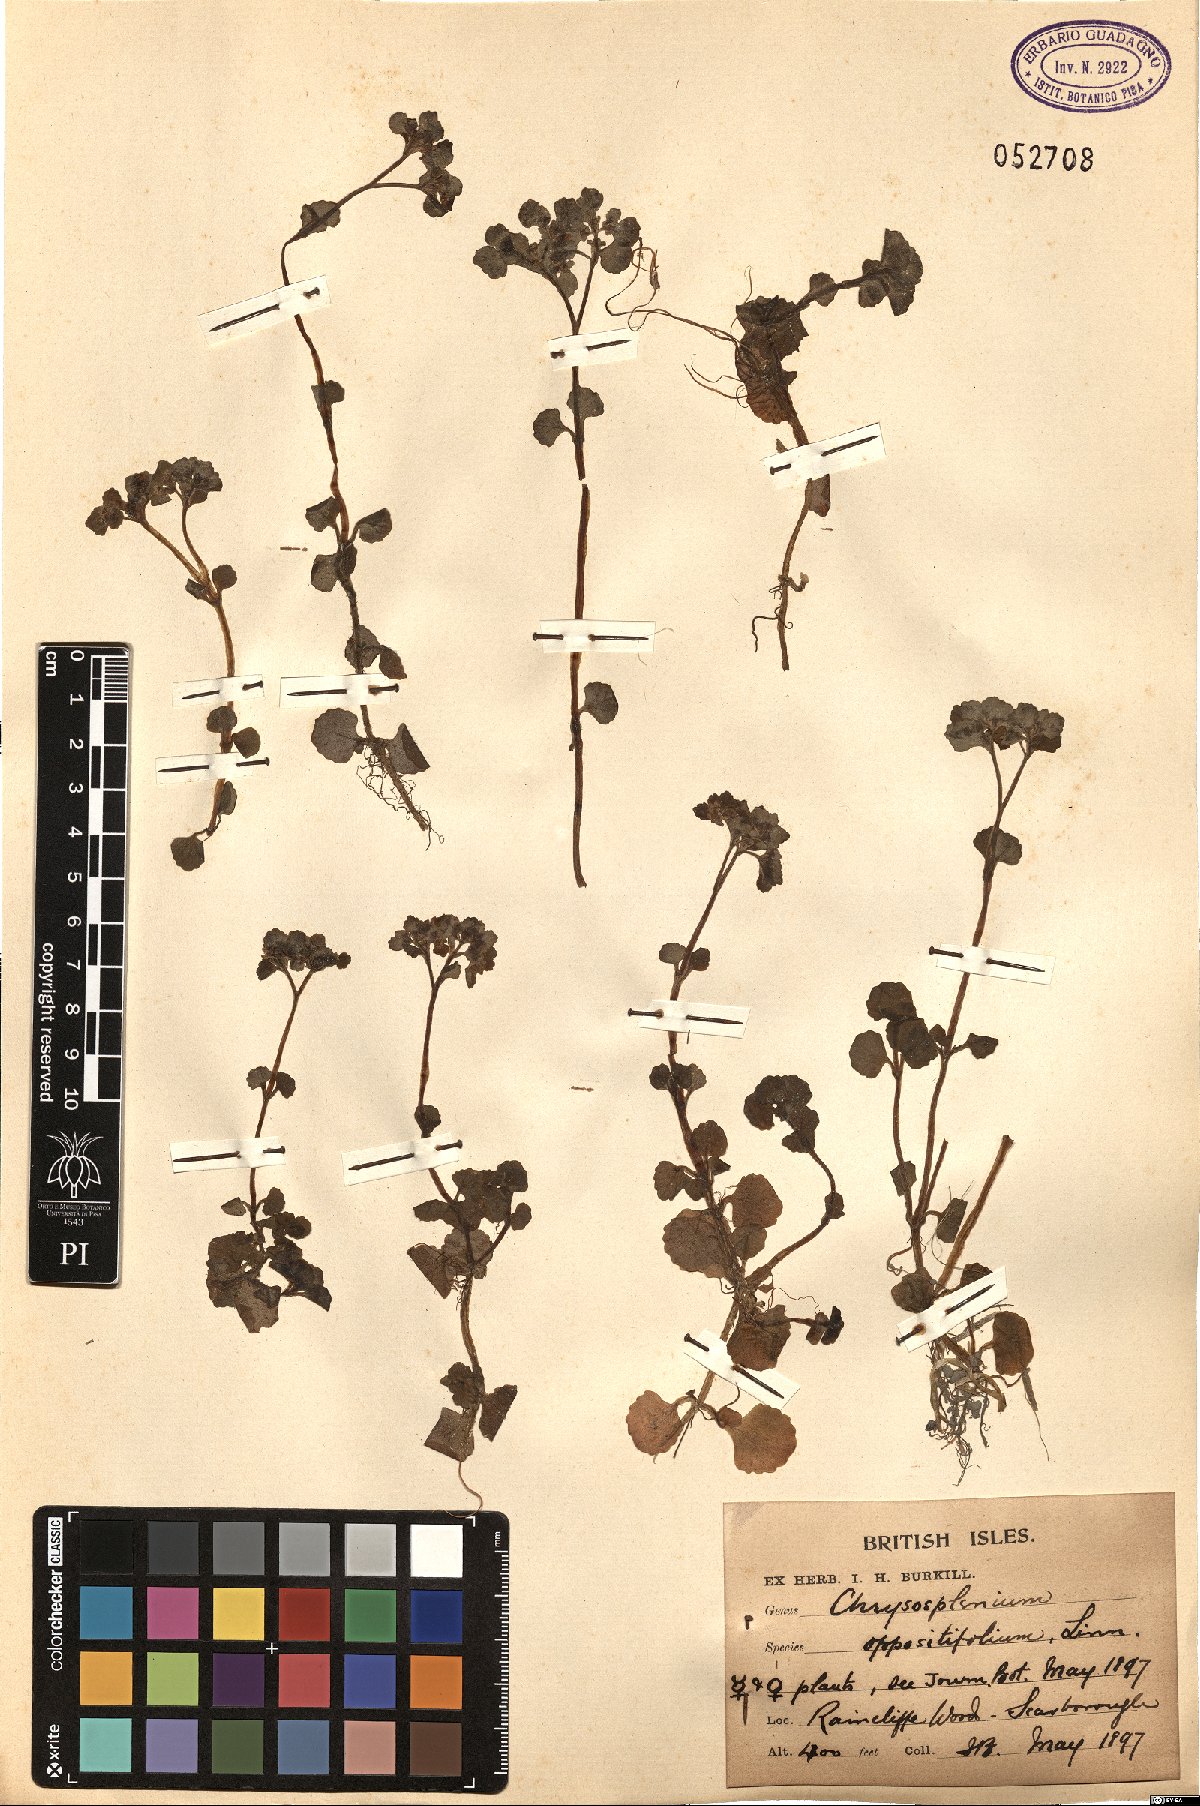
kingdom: Plantae
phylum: Tracheophyta
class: Magnoliopsida
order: Saxifragales
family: Saxifragaceae
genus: Chrysosplenium
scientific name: Chrysosplenium oppositifolium
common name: Opposite-leaved golden-saxifrage
